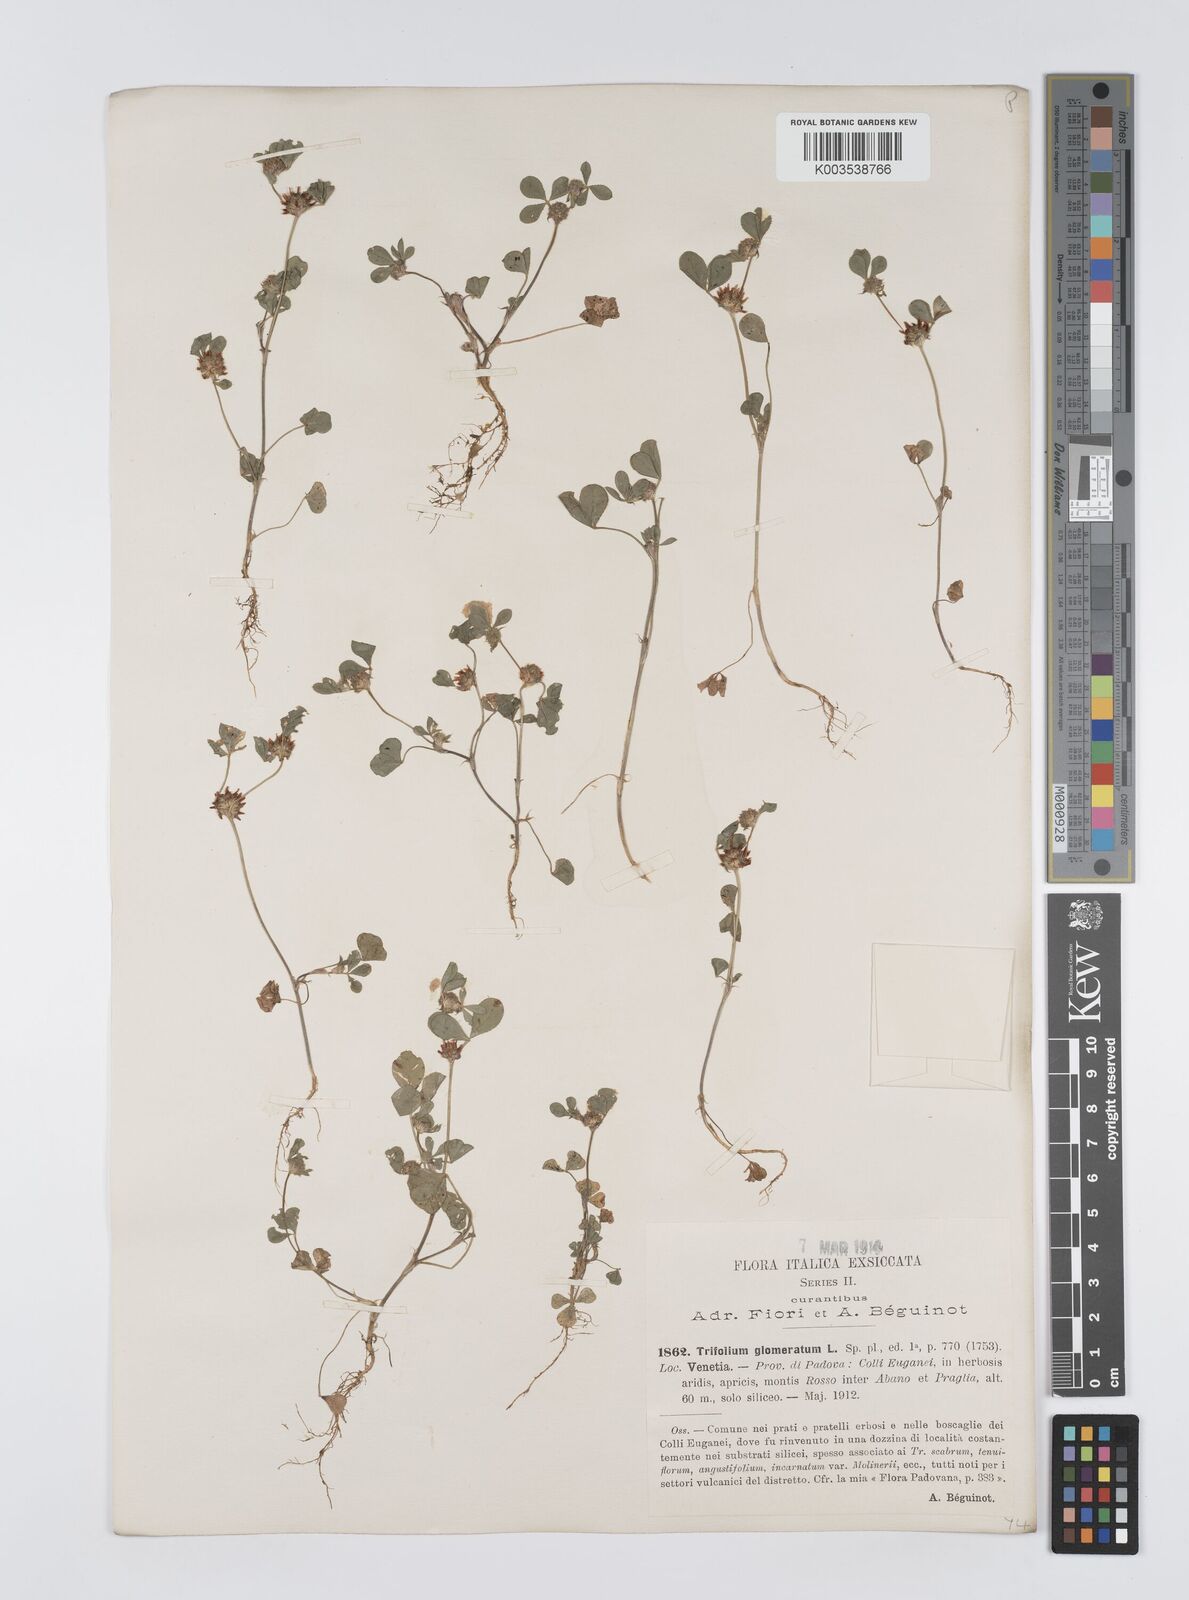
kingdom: Plantae
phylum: Tracheophyta
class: Magnoliopsida
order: Fabales
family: Fabaceae
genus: Trifolium
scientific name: Trifolium glomeratum
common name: Clustered clover
